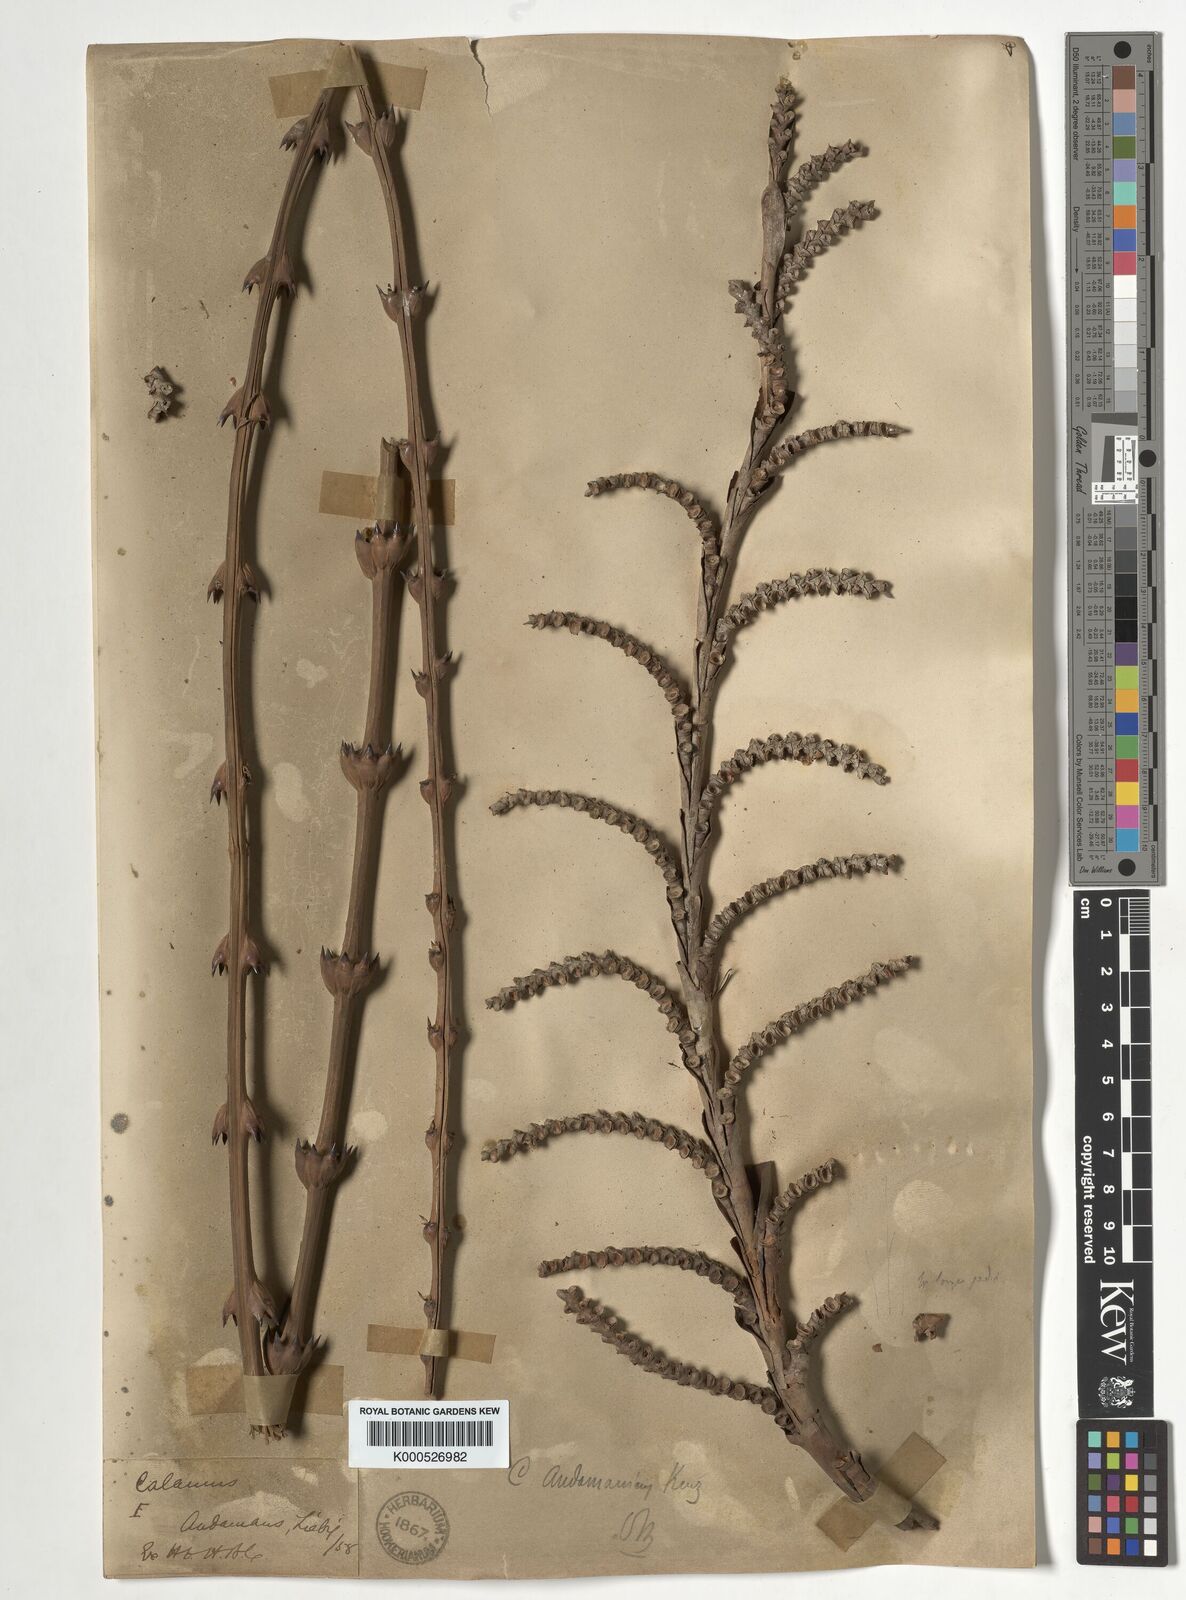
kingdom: Plantae
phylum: Tracheophyta
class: Liliopsida
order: Arecales
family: Arecaceae
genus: Calamus
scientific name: Calamus andamanicus
